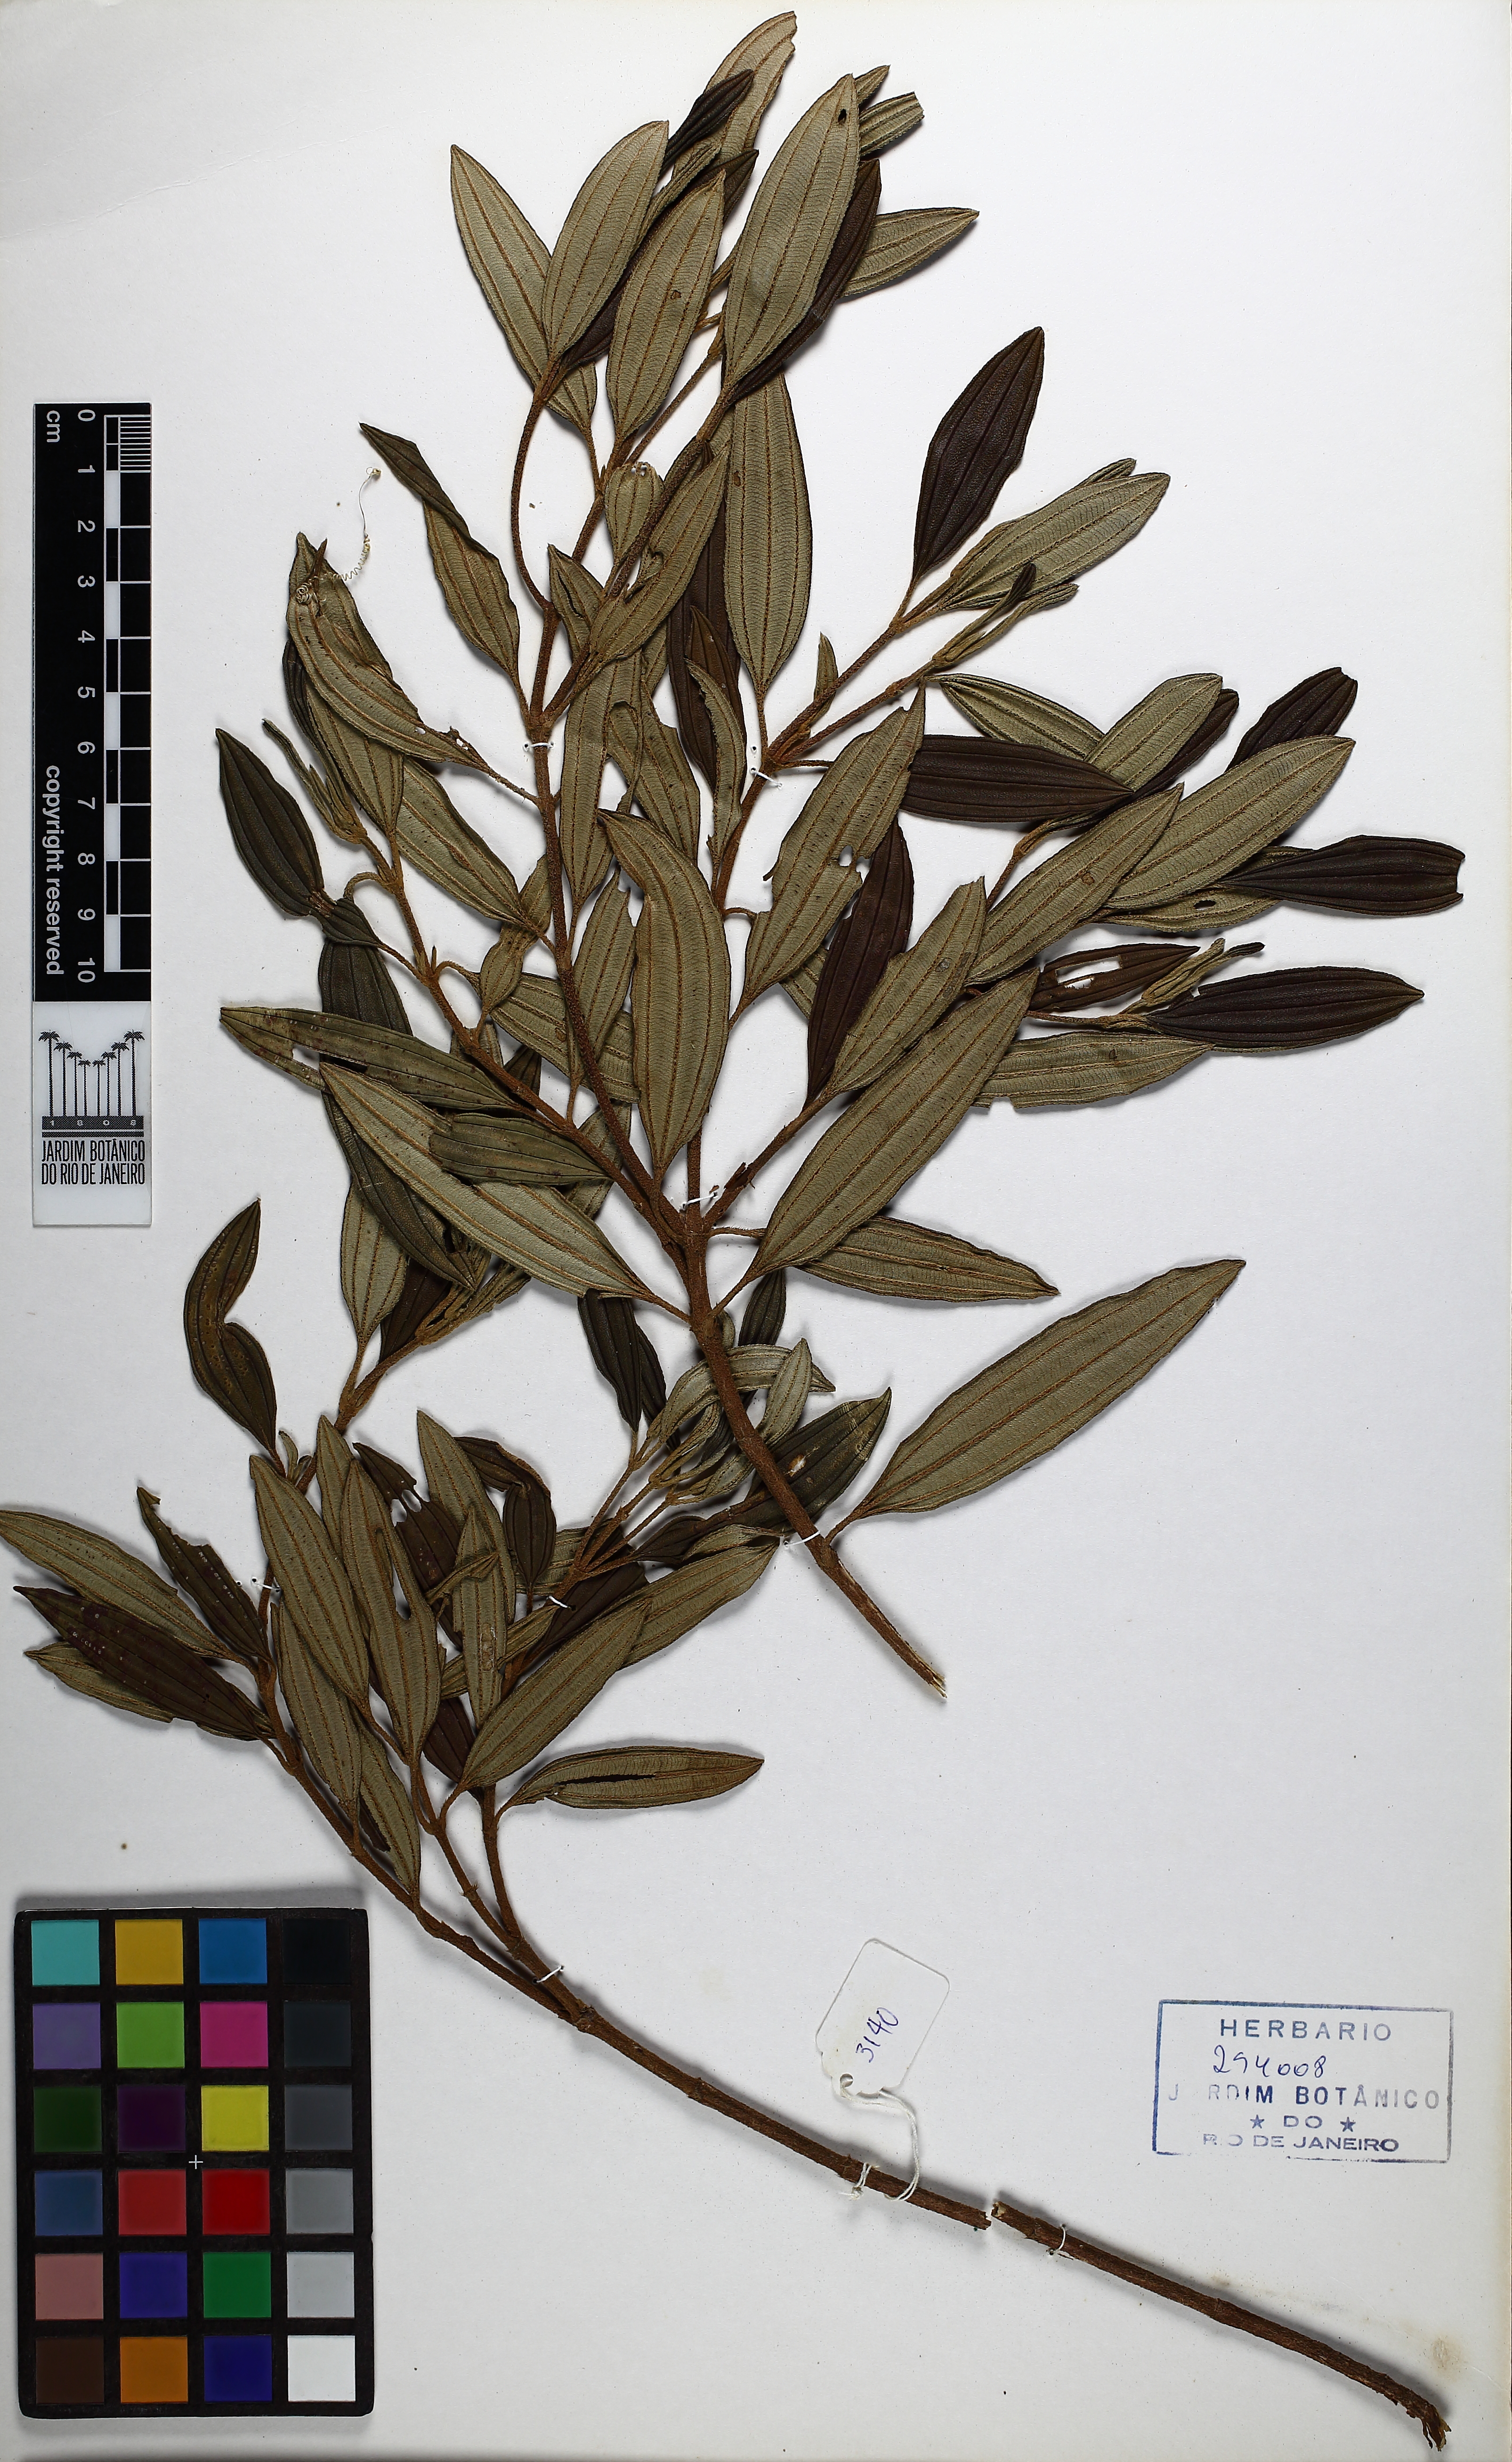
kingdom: Plantae
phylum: Tracheophyta
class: Magnoliopsida
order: Myrtales
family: Melastomataceae
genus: Pleroma
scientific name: Pleroma fissinervium
